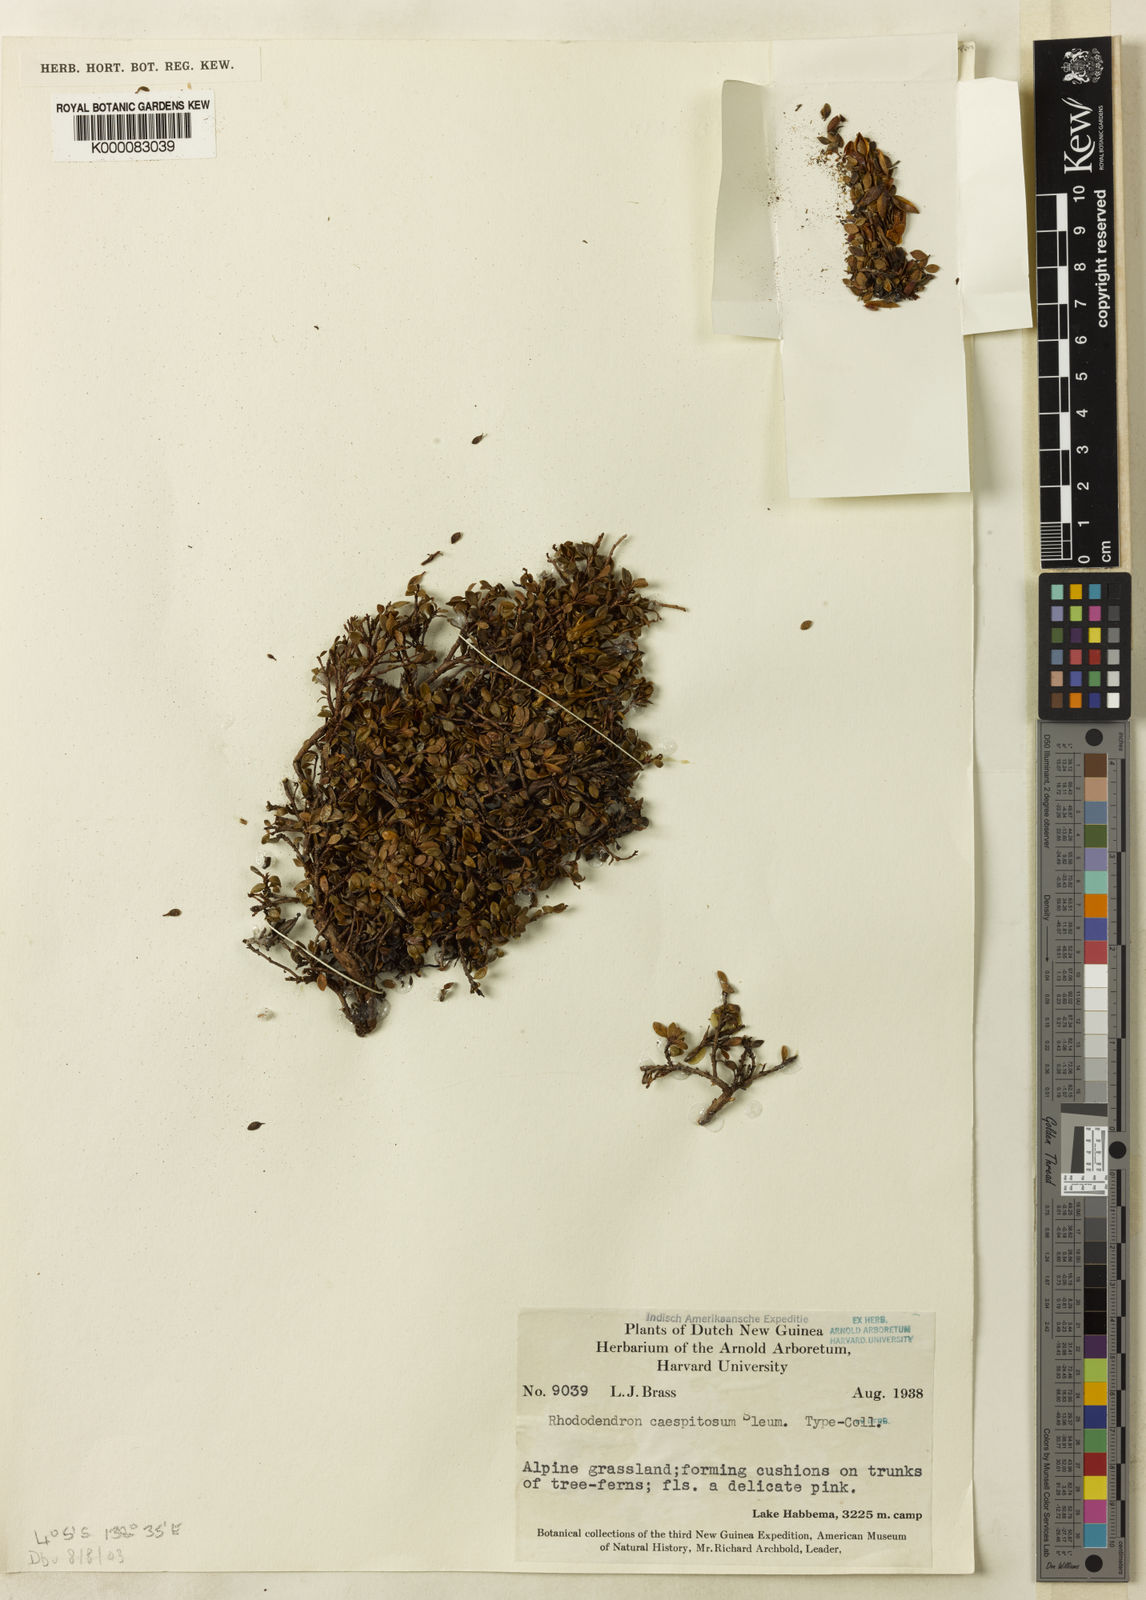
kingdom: Plantae
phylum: Tracheophyta
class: Magnoliopsida
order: Ericales
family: Ericaceae
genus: Rhododendron
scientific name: Rhododendron caespitosum
